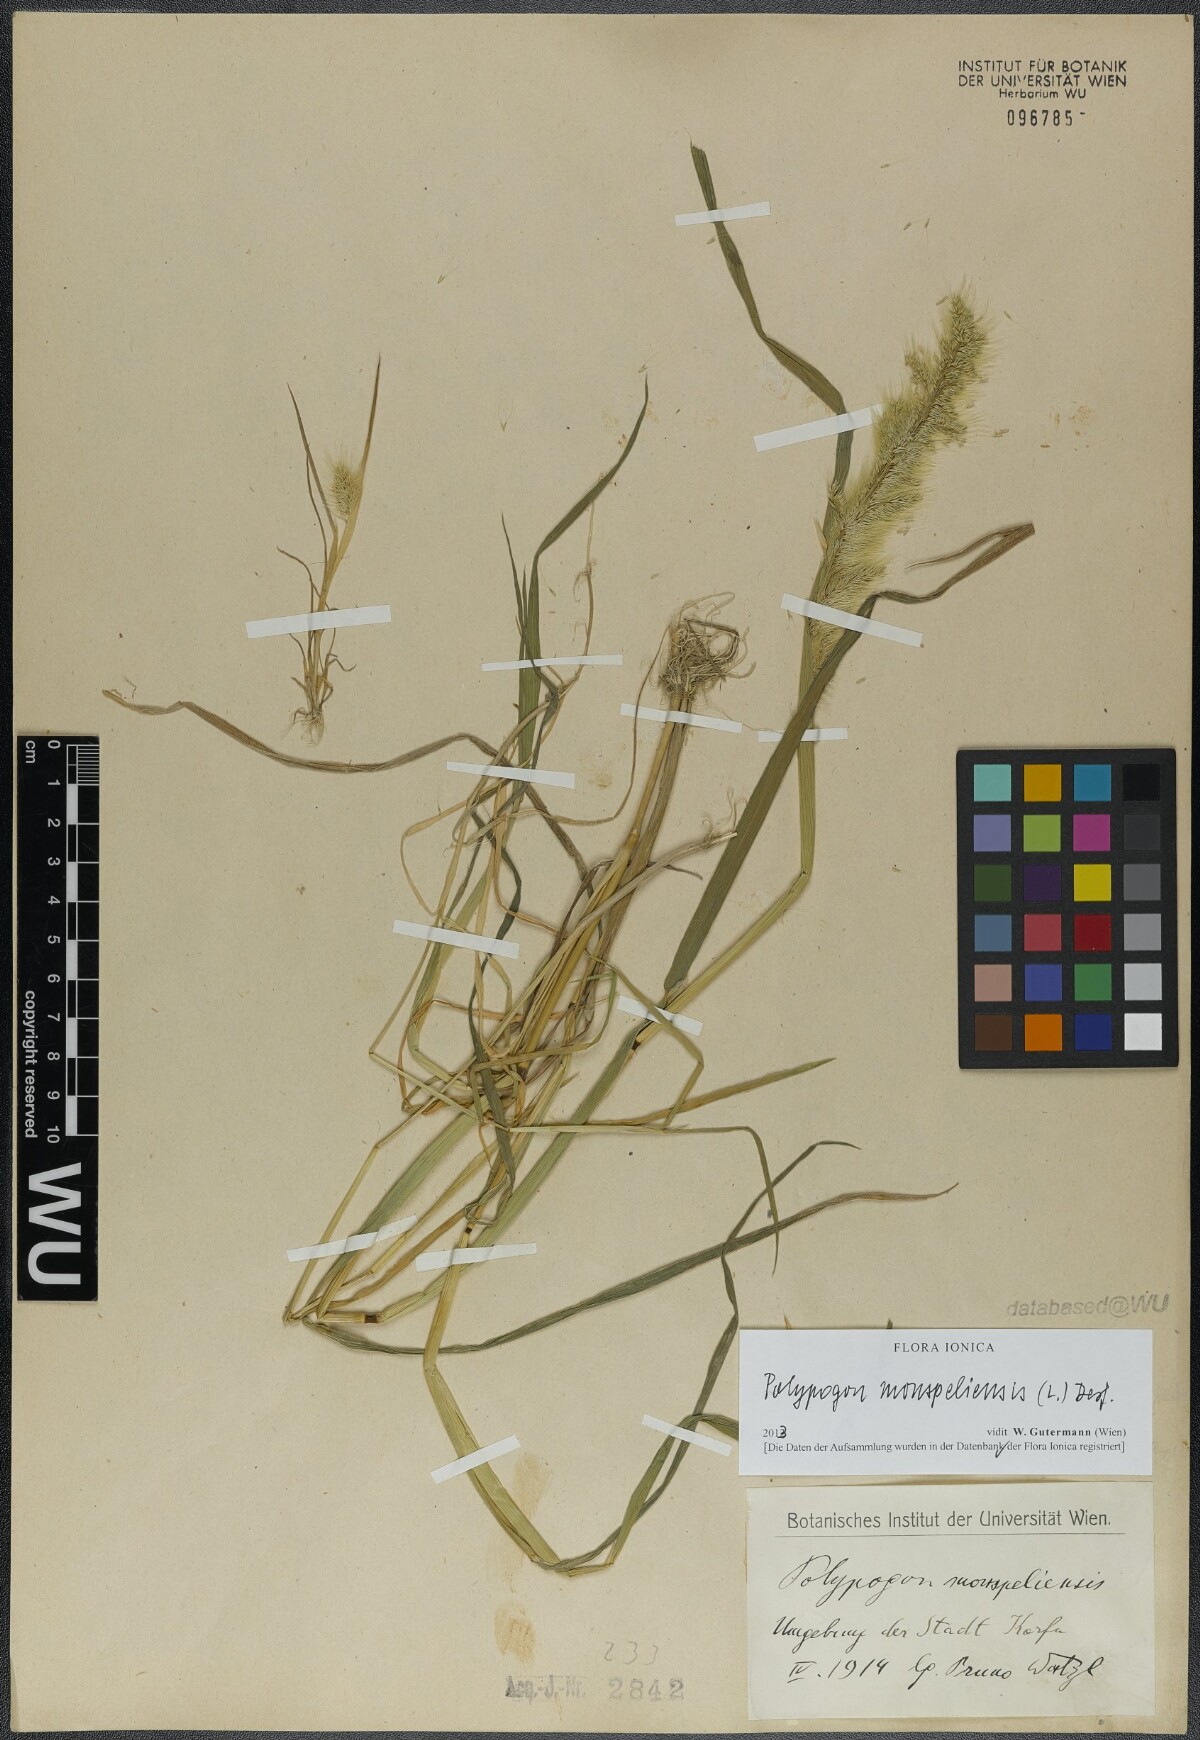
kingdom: Plantae
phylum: Tracheophyta
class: Liliopsida
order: Poales
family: Poaceae
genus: Polypogon
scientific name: Polypogon monspeliensis
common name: Annual rabbitsfoot grass
